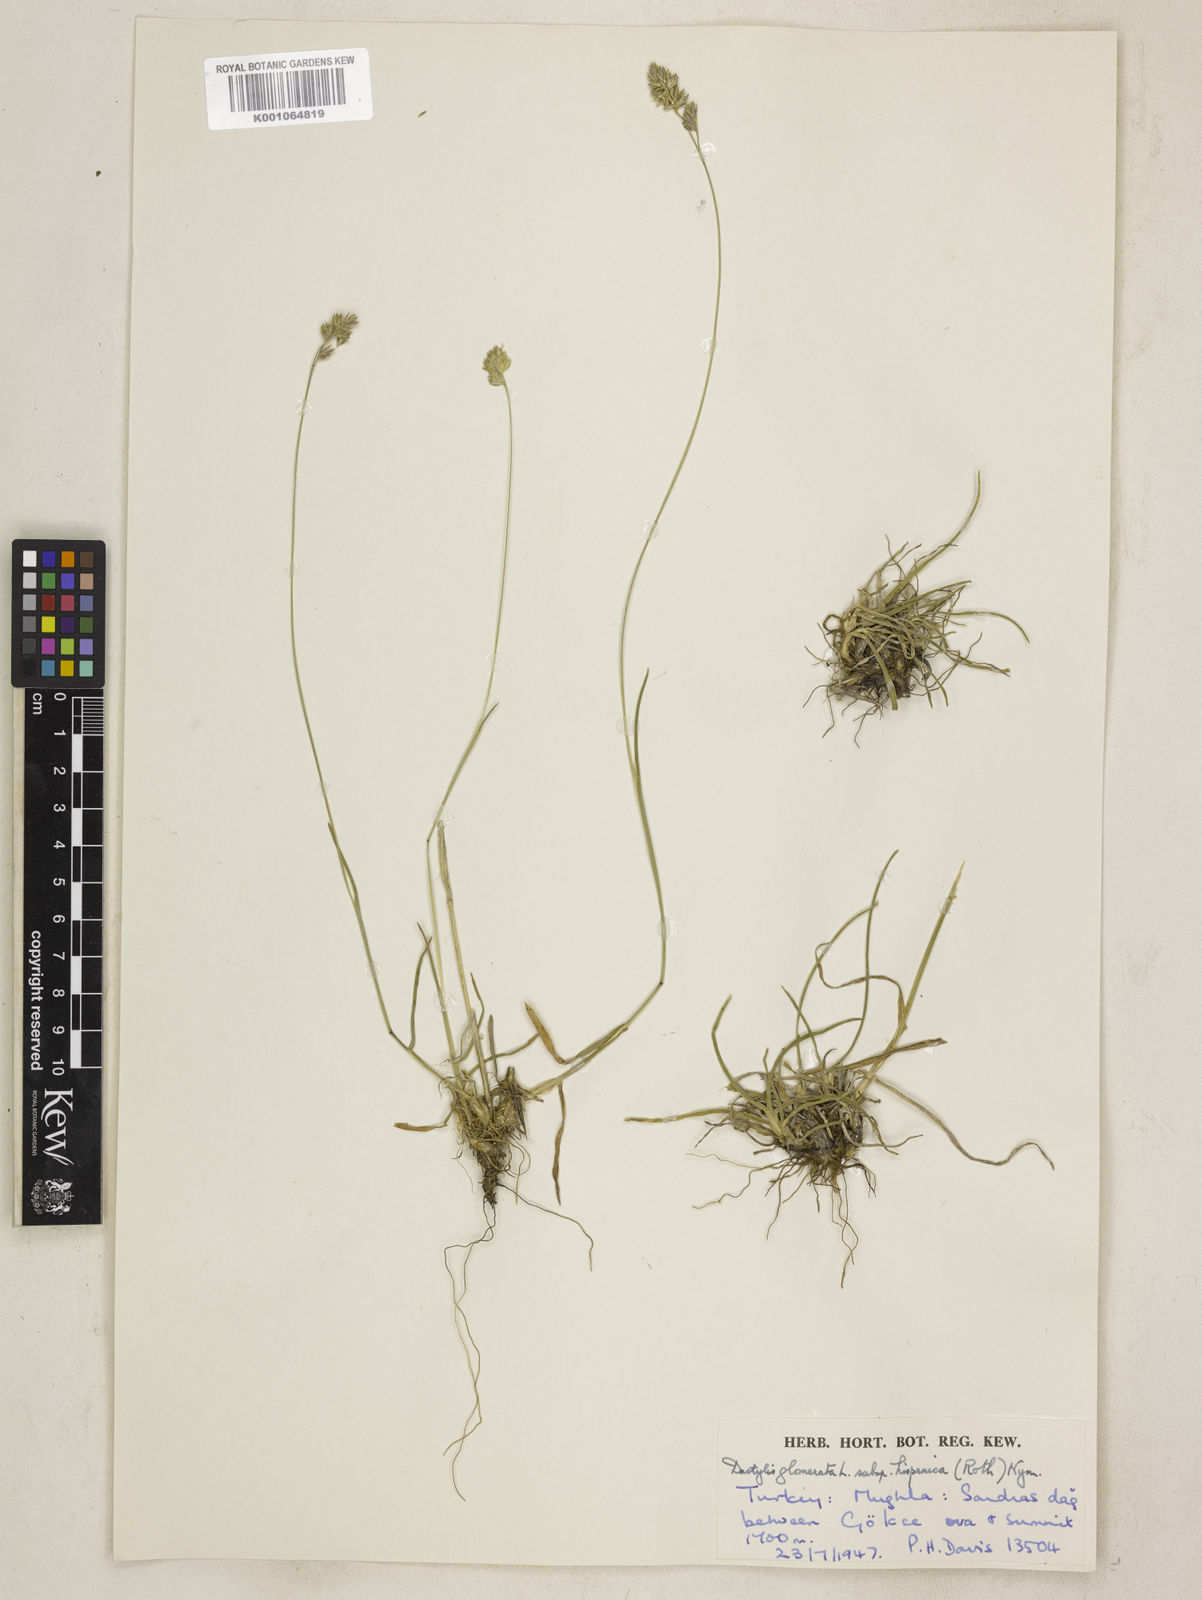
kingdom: Plantae
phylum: Tracheophyta
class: Liliopsida
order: Poales
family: Poaceae
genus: Dactylis
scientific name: Dactylis glomerata
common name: Orchardgrass
